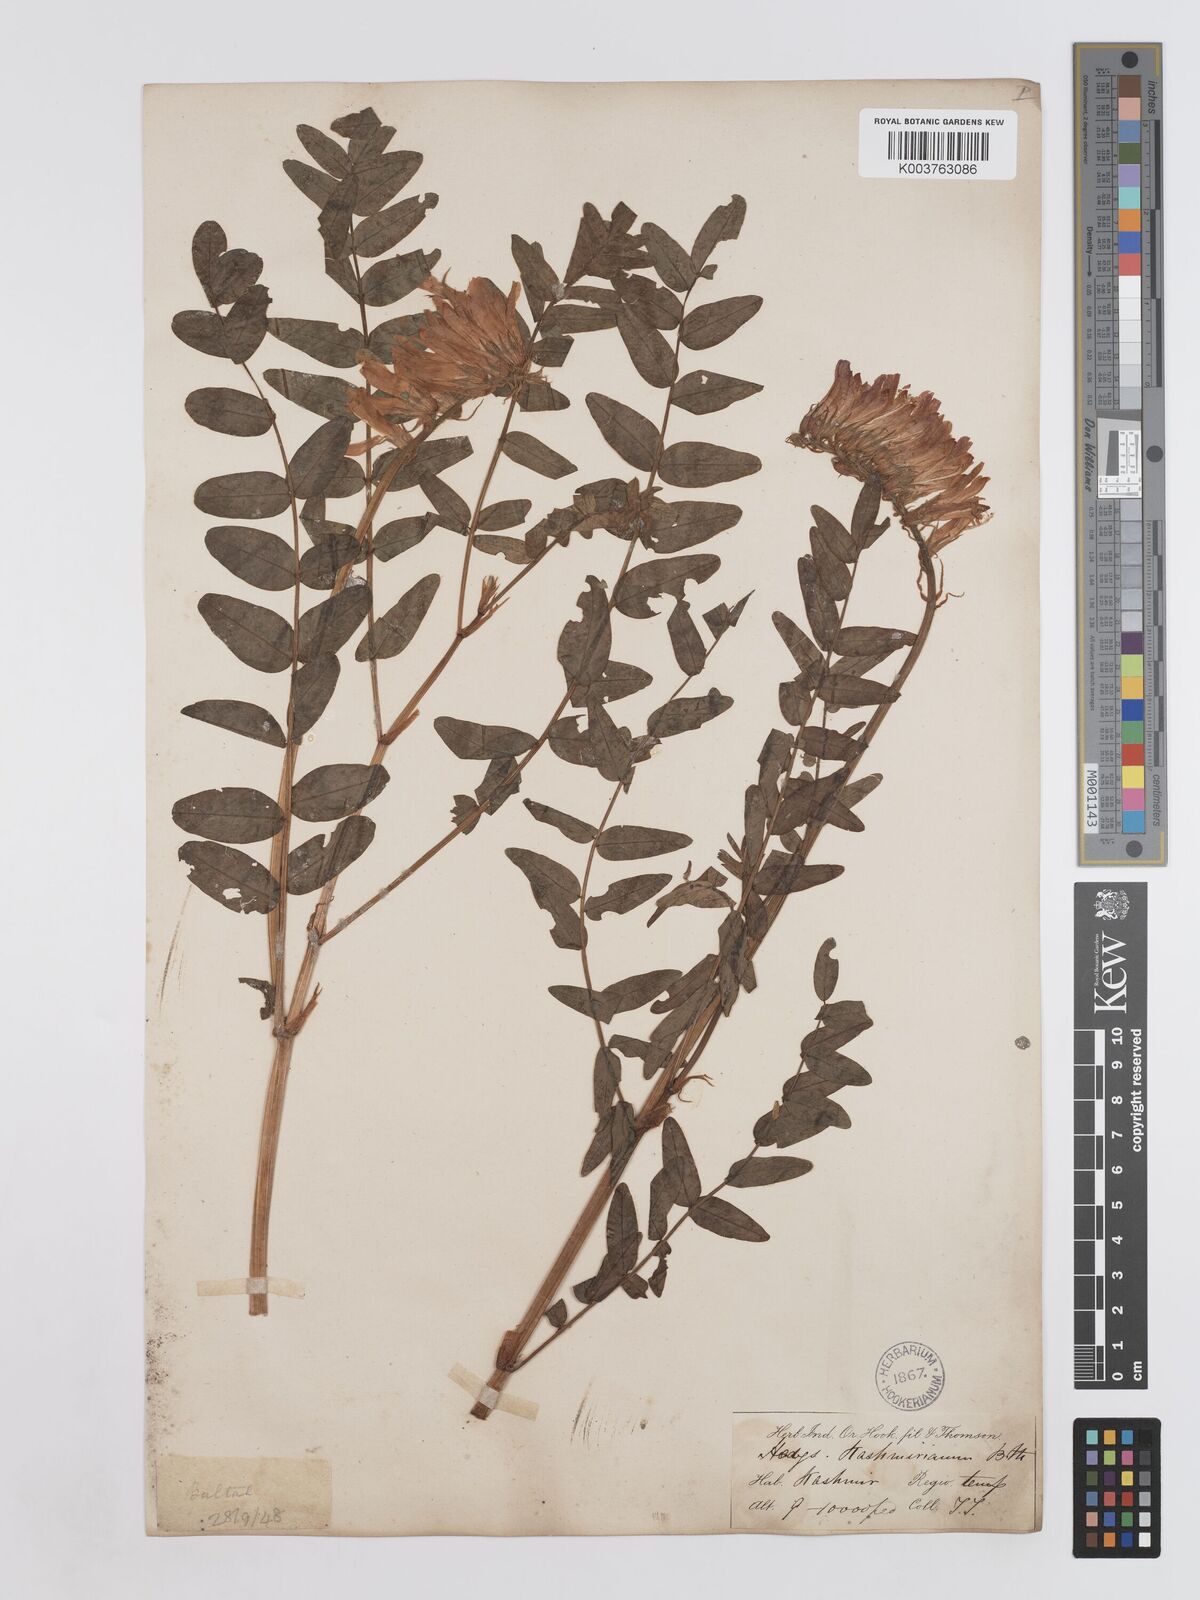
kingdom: Plantae
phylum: Tracheophyta
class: Magnoliopsida
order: Fabales
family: Fabaceae
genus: Hedysarum
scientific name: Hedysarum cachemirianum
